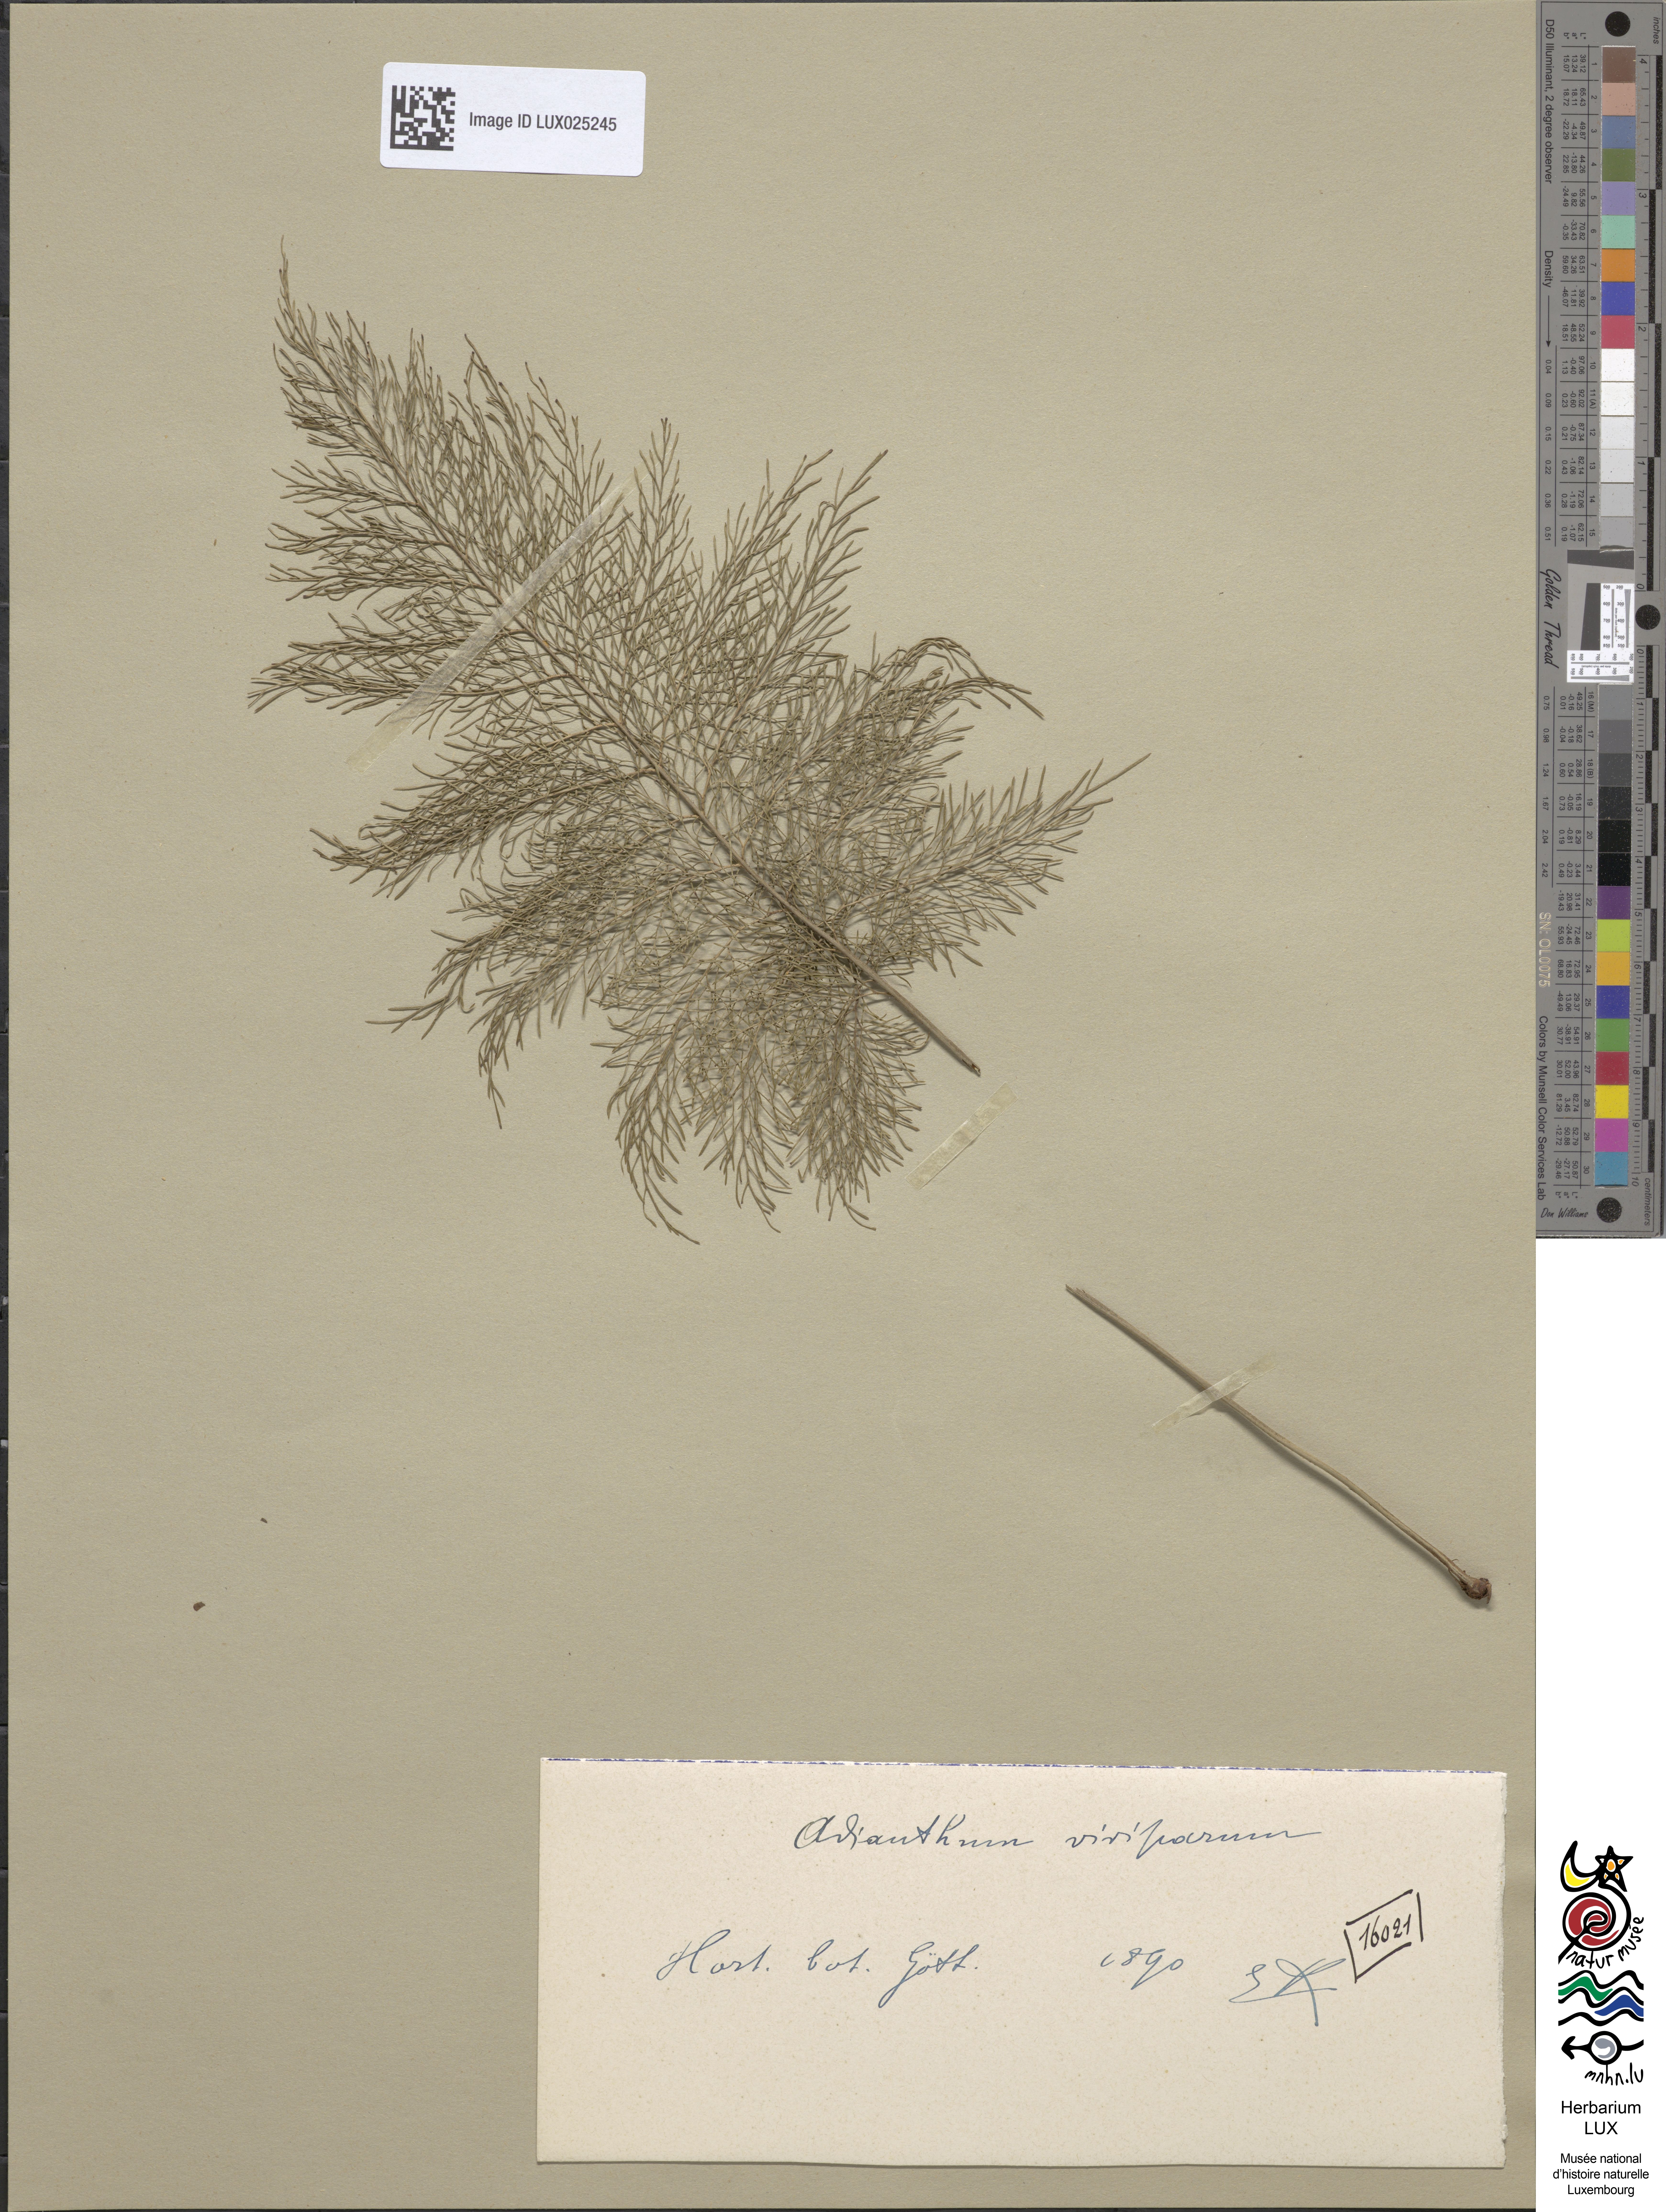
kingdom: Plantae
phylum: Tracheophyta
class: Polypodiopsida
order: Polypodiales
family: Pteridaceae
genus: Adiantum
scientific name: Adiantum
